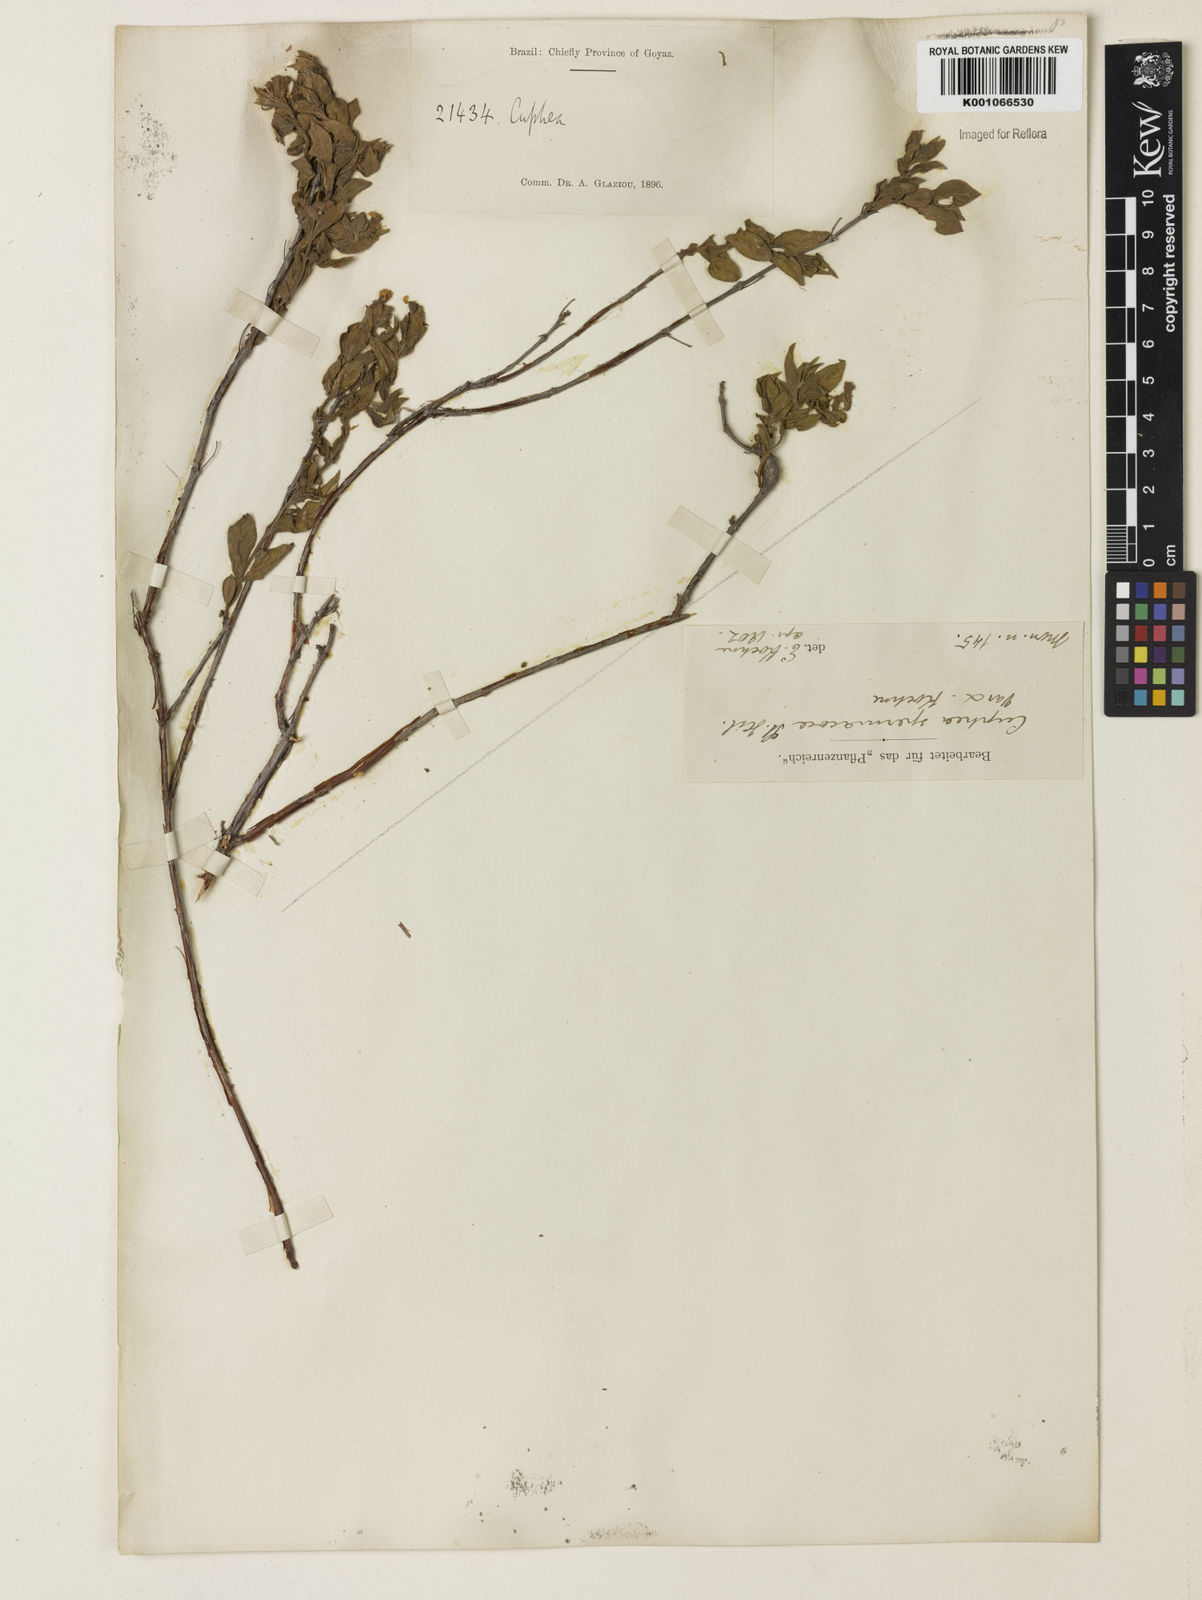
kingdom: Plantae
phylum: Tracheophyta
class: Magnoliopsida
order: Myrtales
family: Lythraceae
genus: Cuphea
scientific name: Cuphea spermacoce
